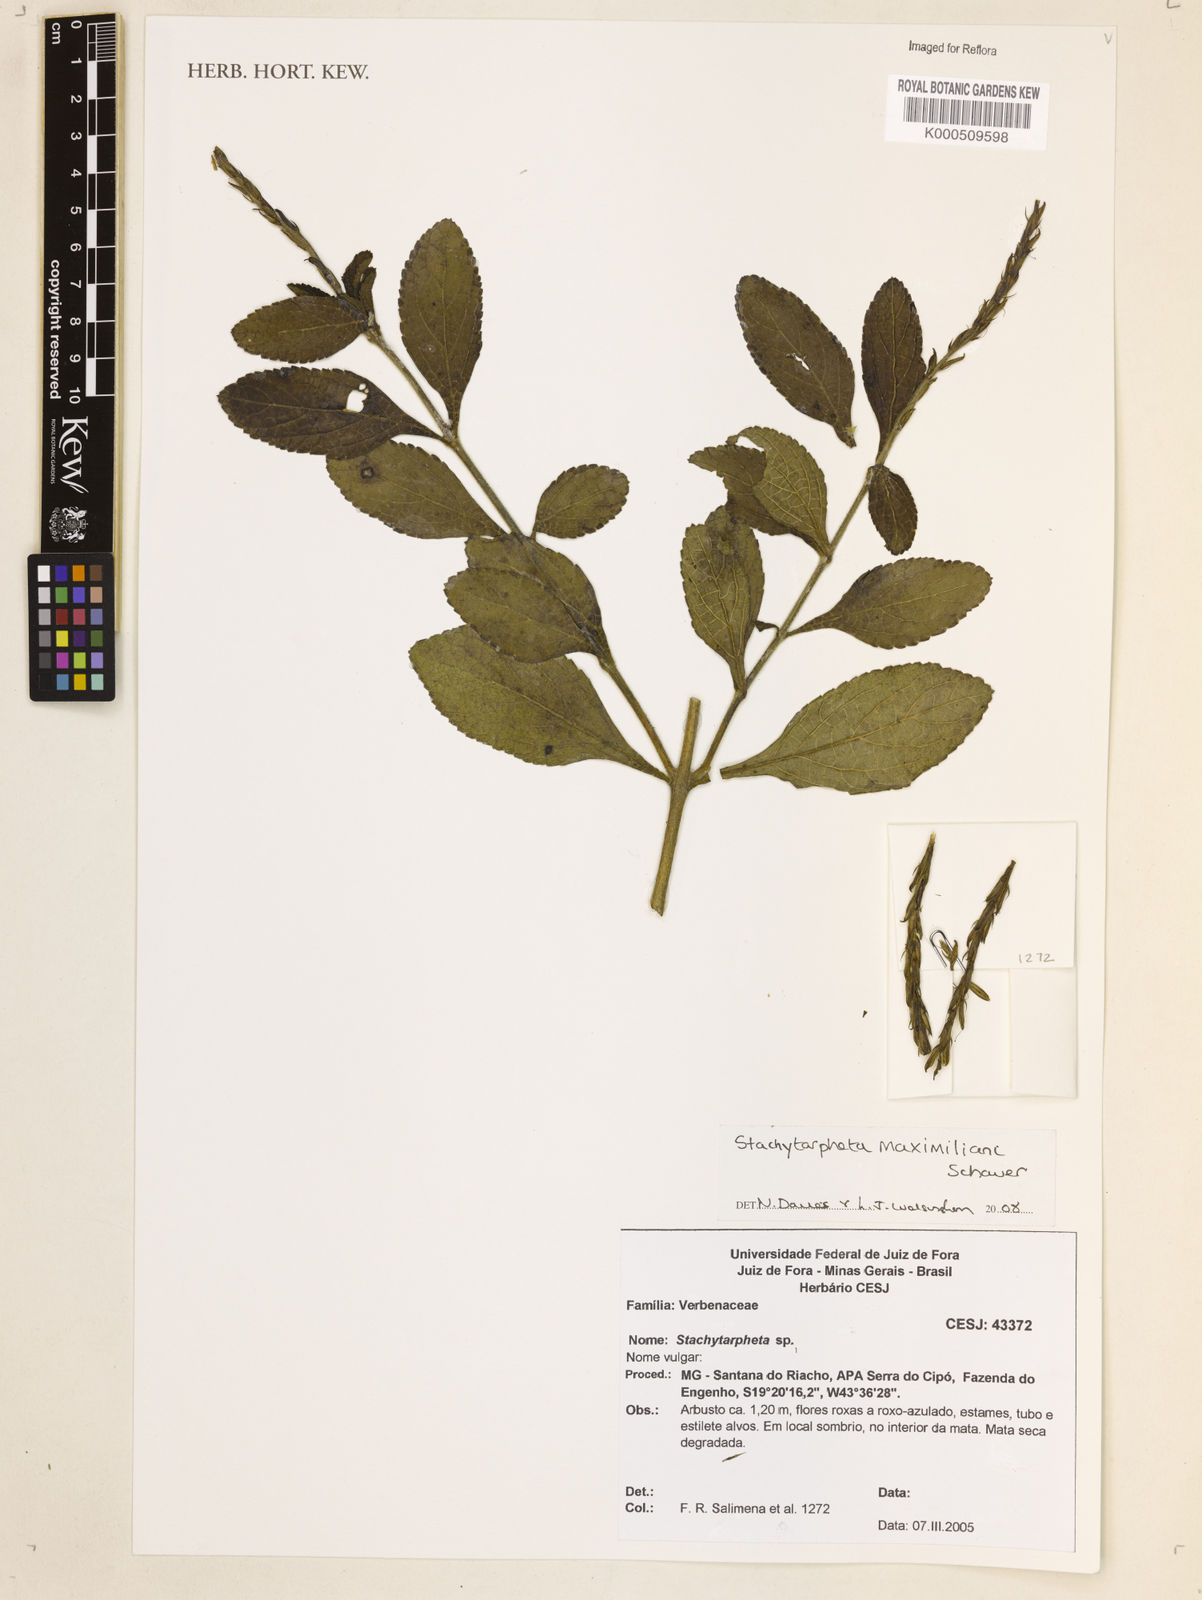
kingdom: Plantae
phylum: Tracheophyta
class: Magnoliopsida
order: Lamiales
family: Verbenaceae
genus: Stachytarpheta
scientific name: Stachytarpheta maximiliani
